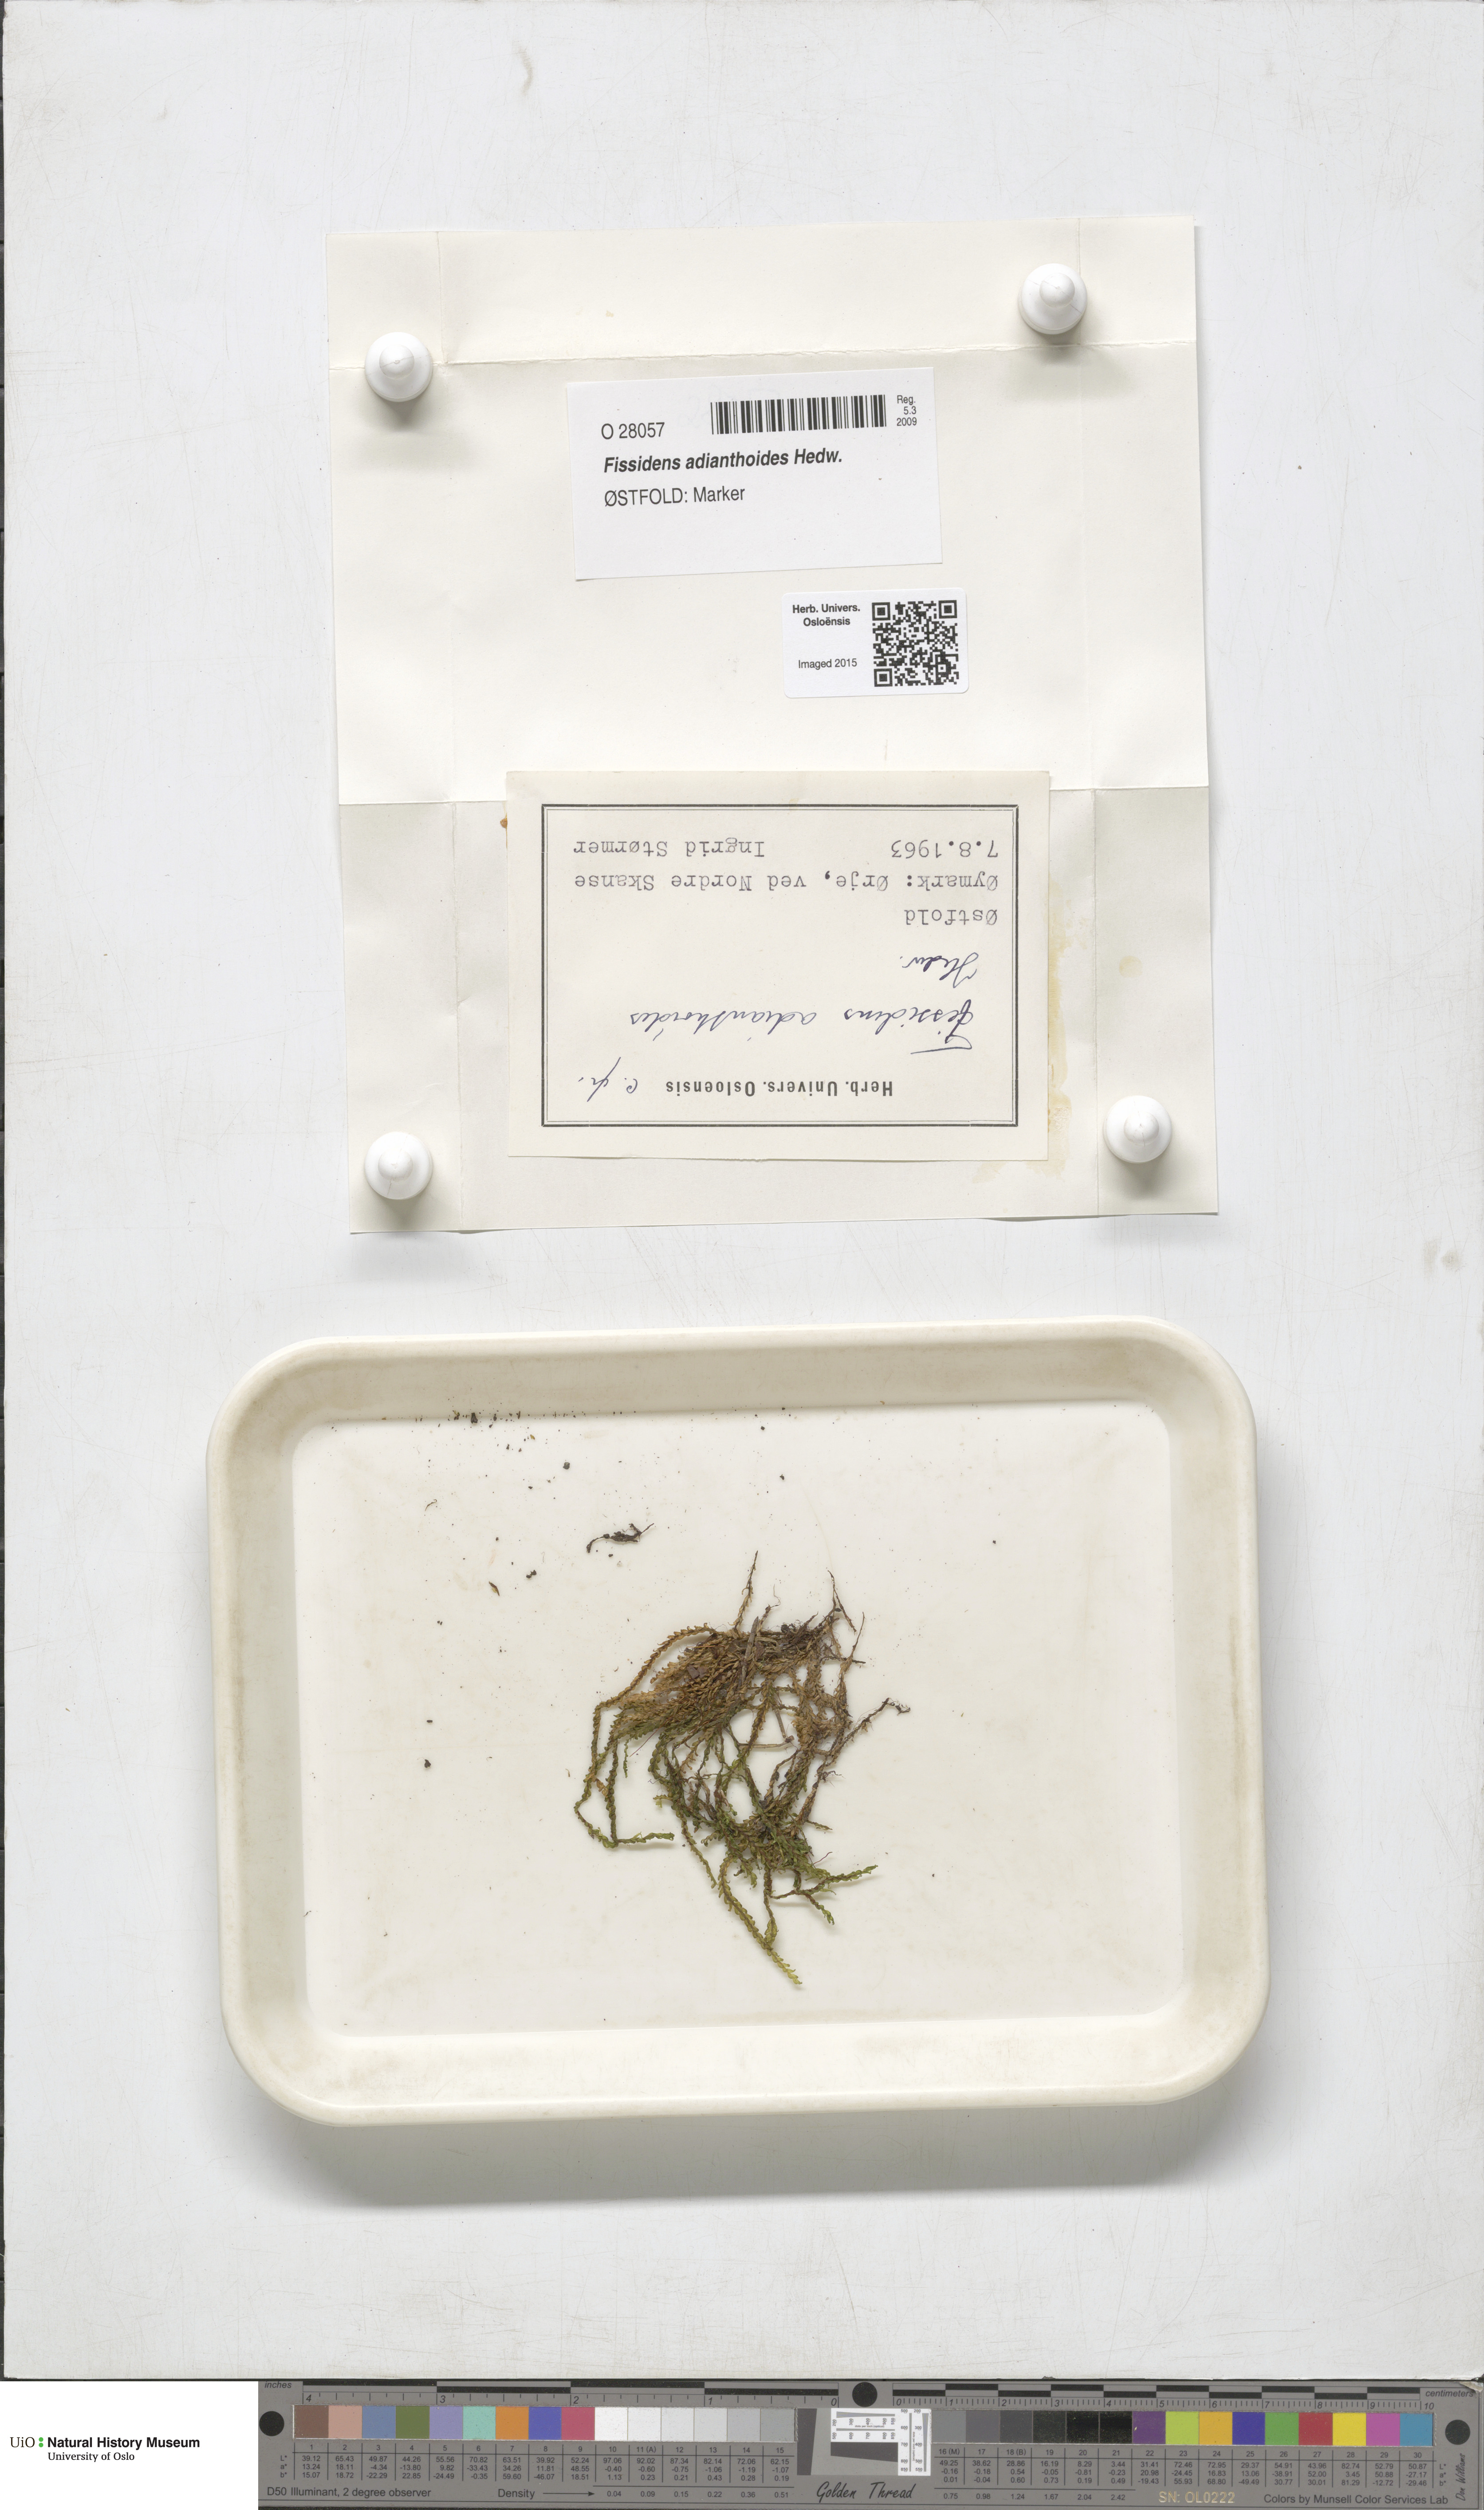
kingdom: Plantae
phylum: Bryophyta
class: Bryopsida
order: Dicranales
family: Fissidentaceae
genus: Fissidens
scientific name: Fissidens adianthoides
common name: Maidenhair pocket moss
